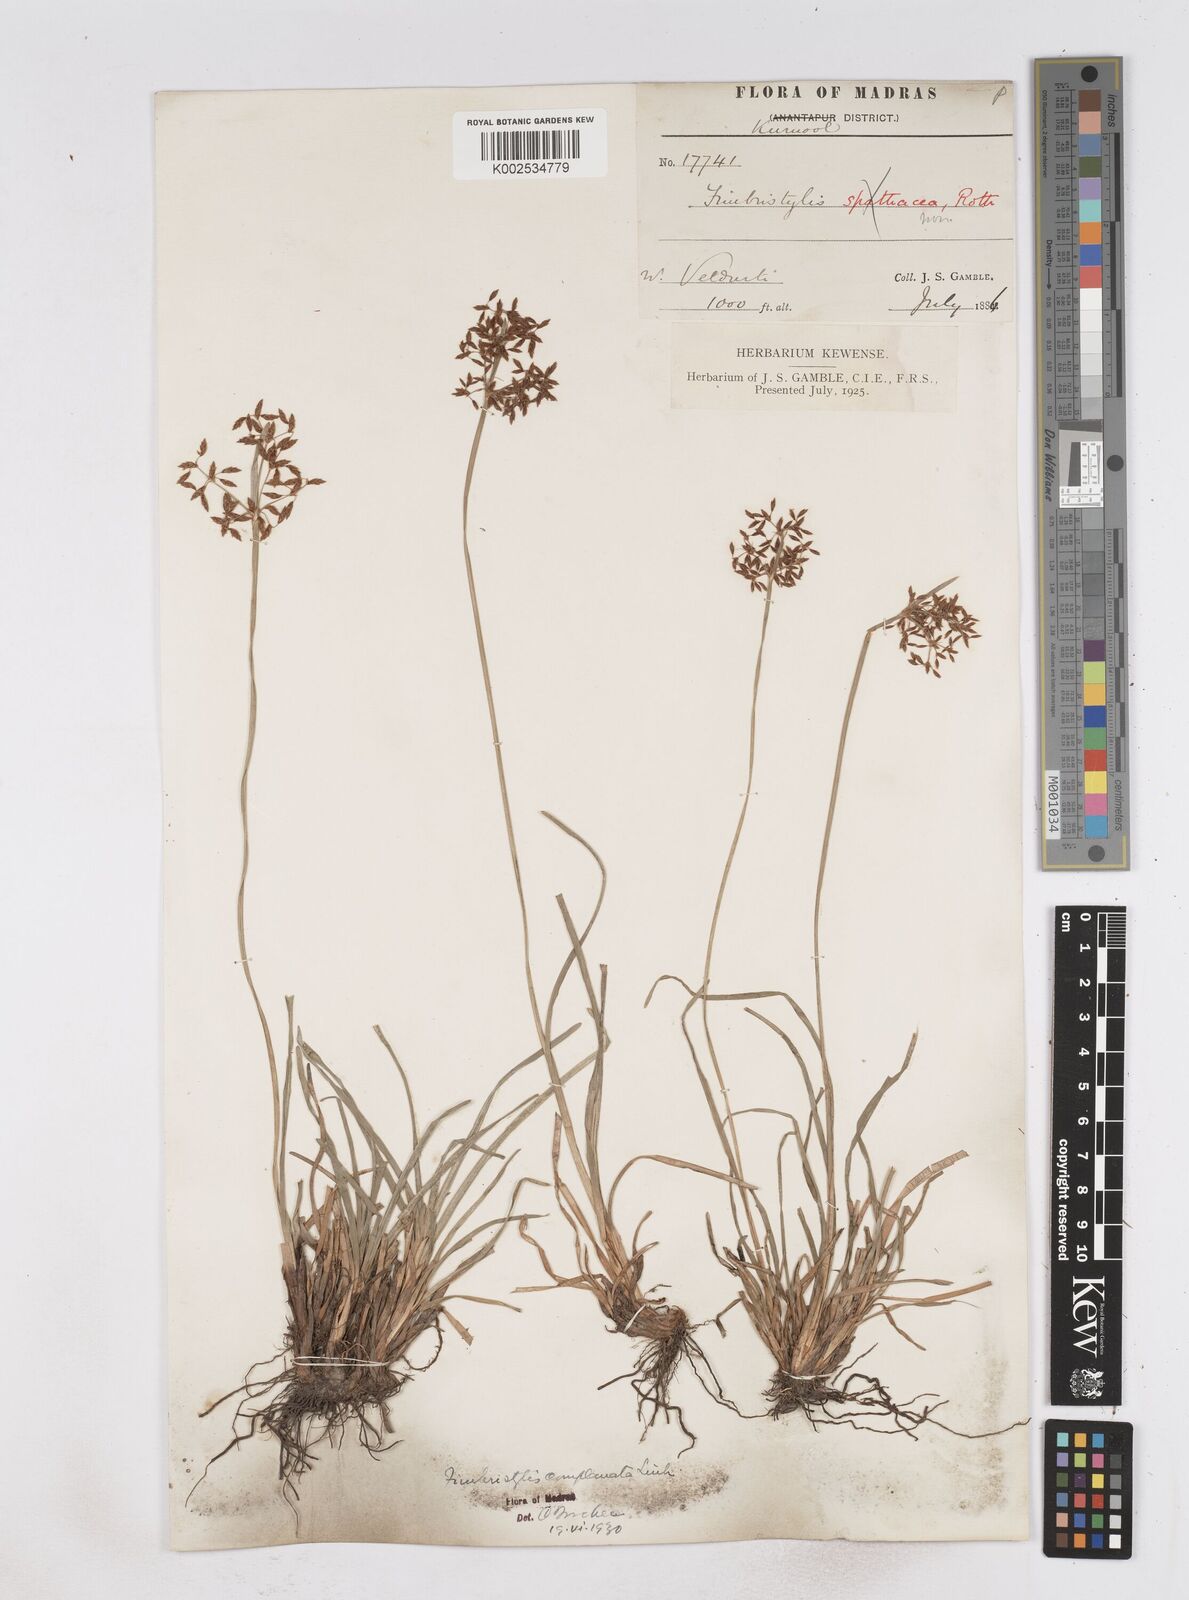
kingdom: Plantae
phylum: Tracheophyta
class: Liliopsida
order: Poales
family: Cyperaceae
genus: Fimbristylis
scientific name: Fimbristylis complanata
